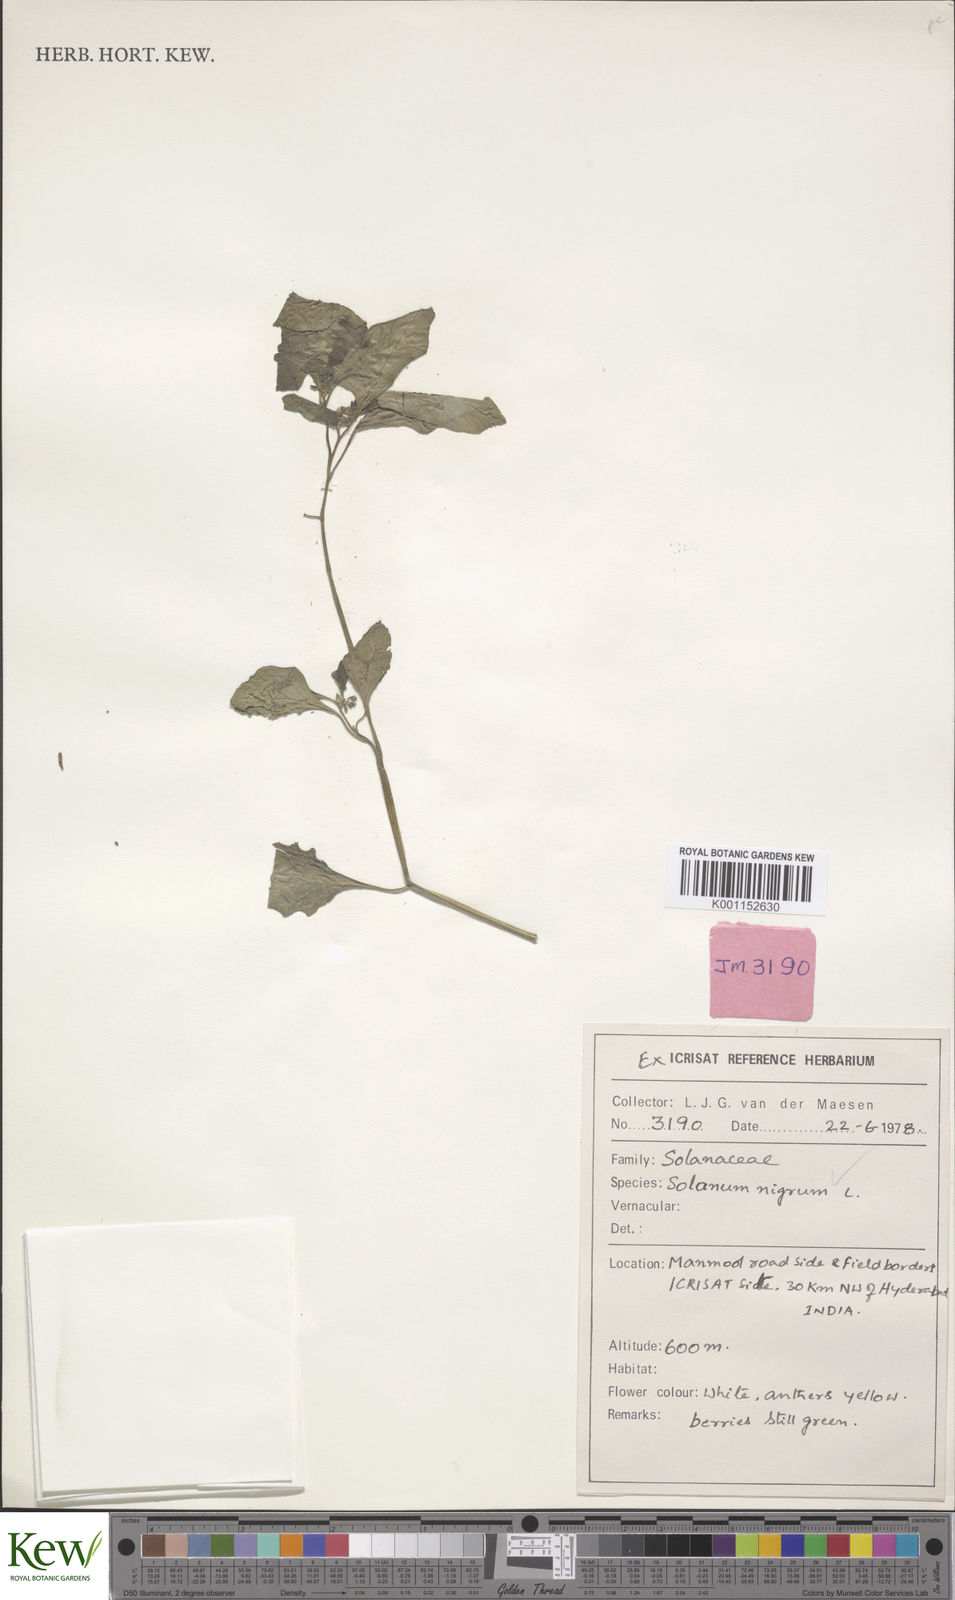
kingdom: Plantae
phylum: Tracheophyta
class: Magnoliopsida
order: Solanales
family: Solanaceae
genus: Solanum
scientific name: Solanum nigrum
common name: Black nightshade
